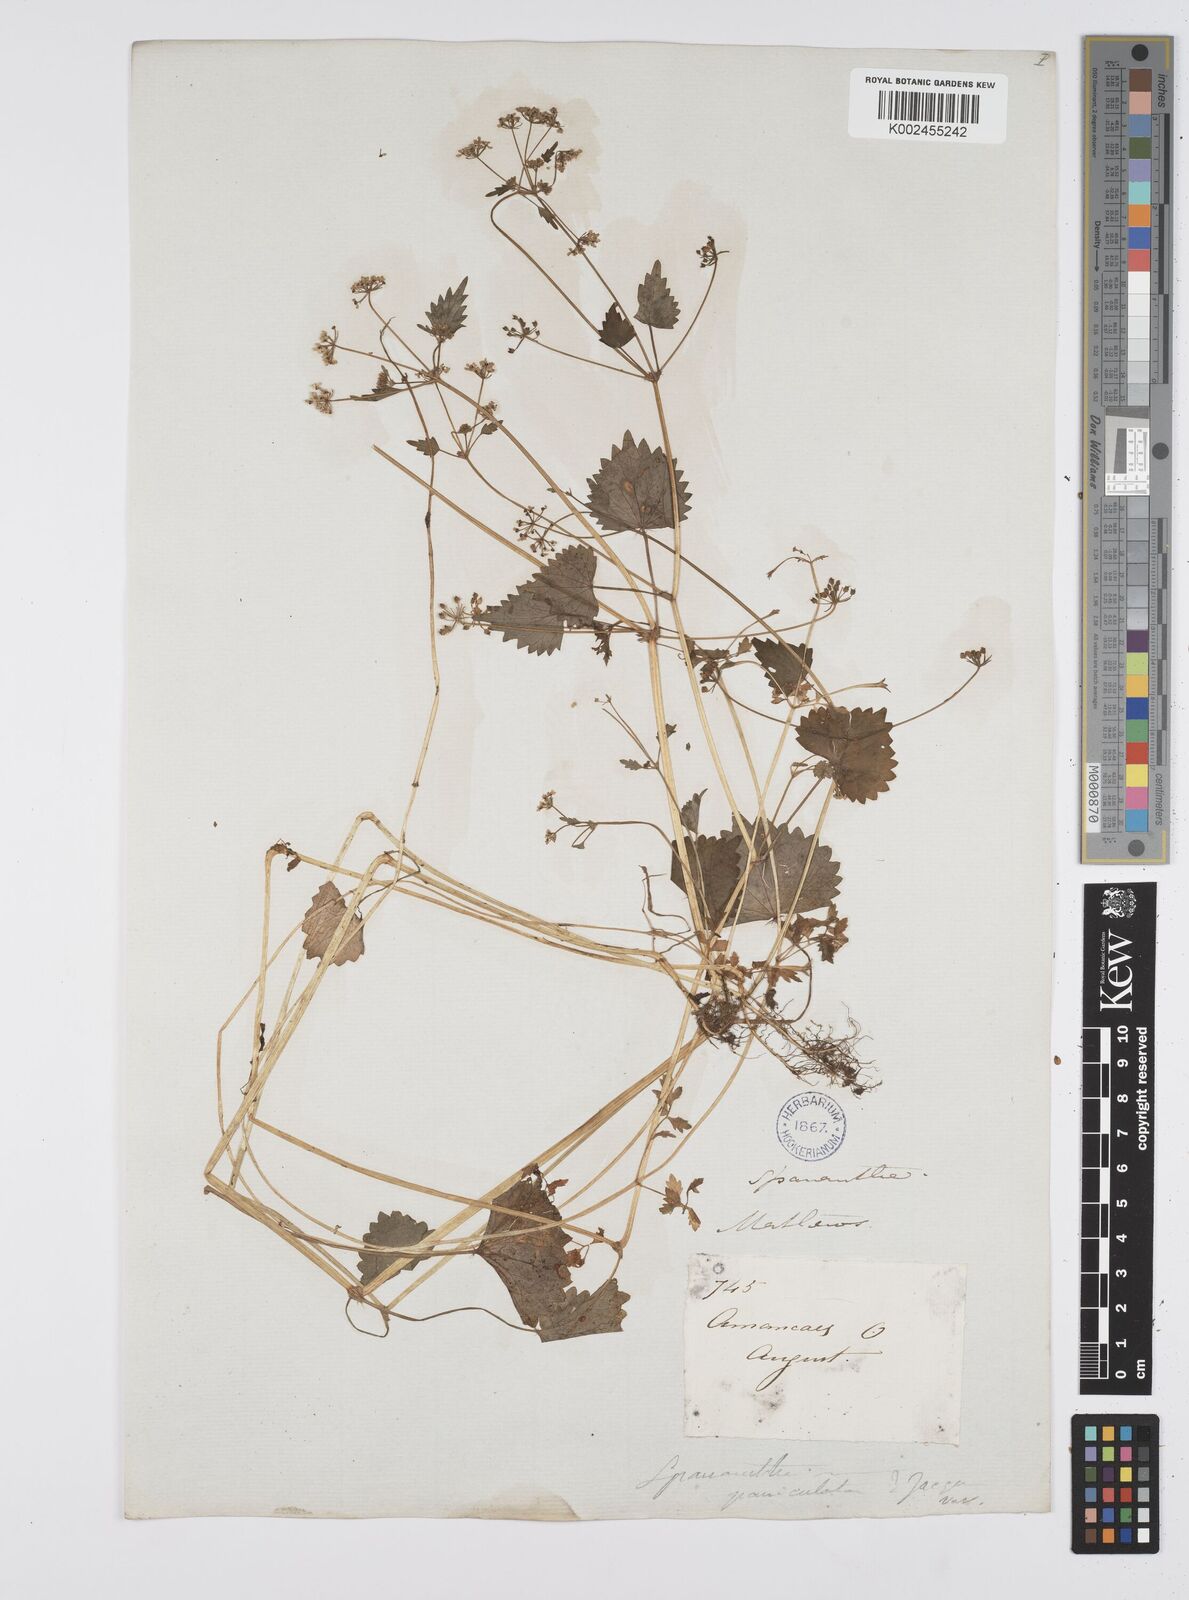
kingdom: Plantae
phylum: Tracheophyta
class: Magnoliopsida
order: Apiales
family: Apiaceae
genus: Azorella
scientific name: Azorella
